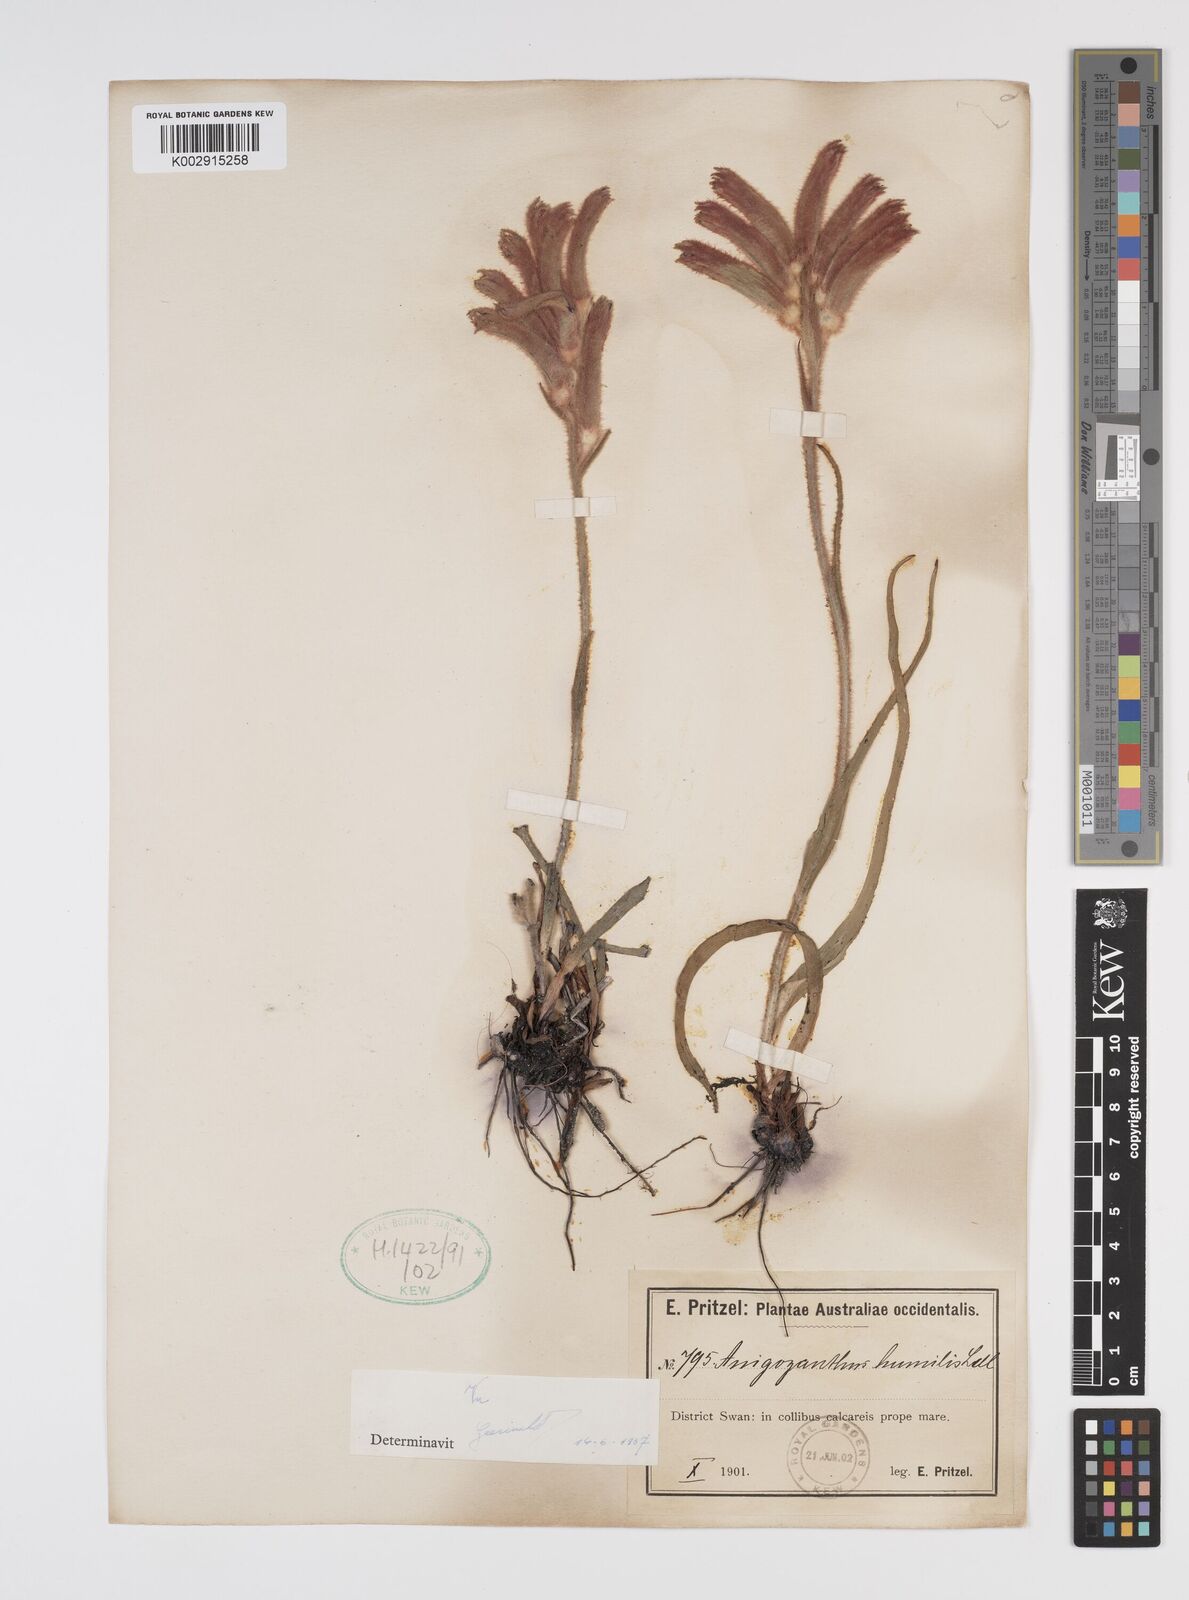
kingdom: Plantae
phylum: Tracheophyta
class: Liliopsida
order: Commelinales
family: Haemodoraceae
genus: Anigozanthos
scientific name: Anigozanthos humilis
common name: Cat's-paw
